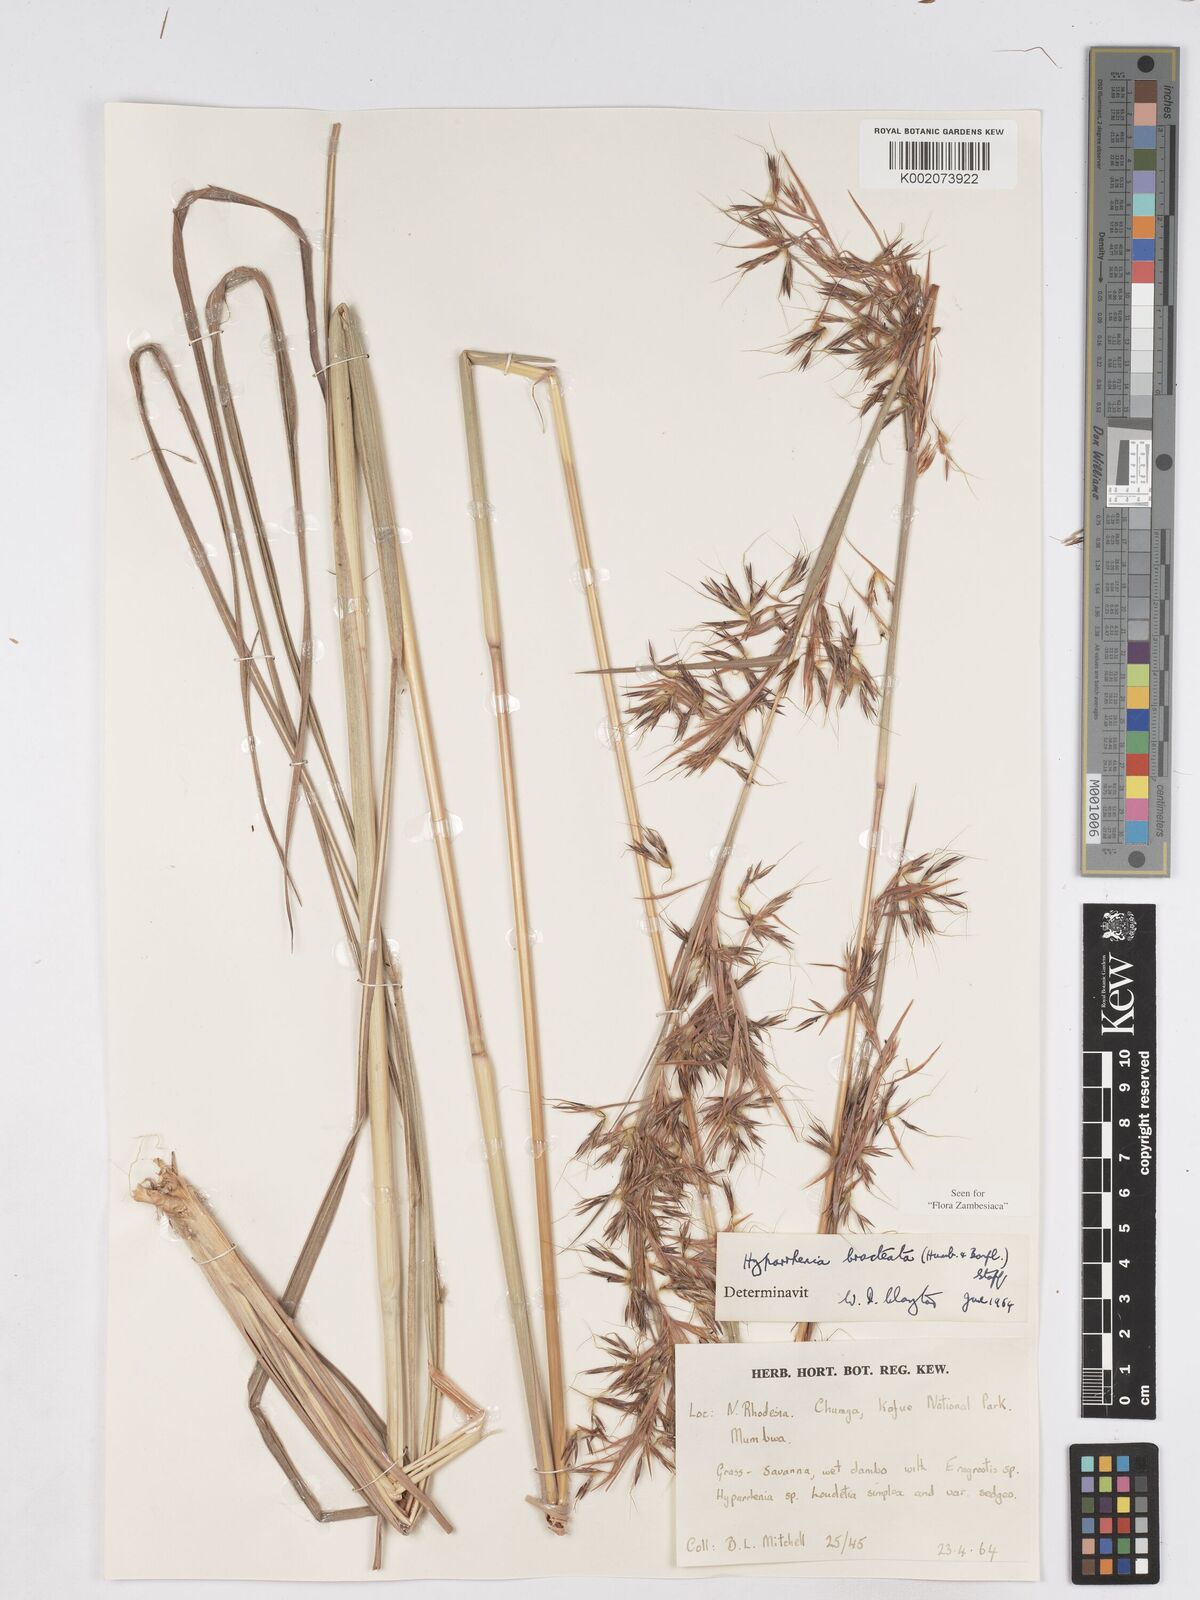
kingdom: Plantae
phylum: Tracheophyta
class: Liliopsida
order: Poales
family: Poaceae
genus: Hyparrhenia
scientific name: Hyparrhenia bracteata
